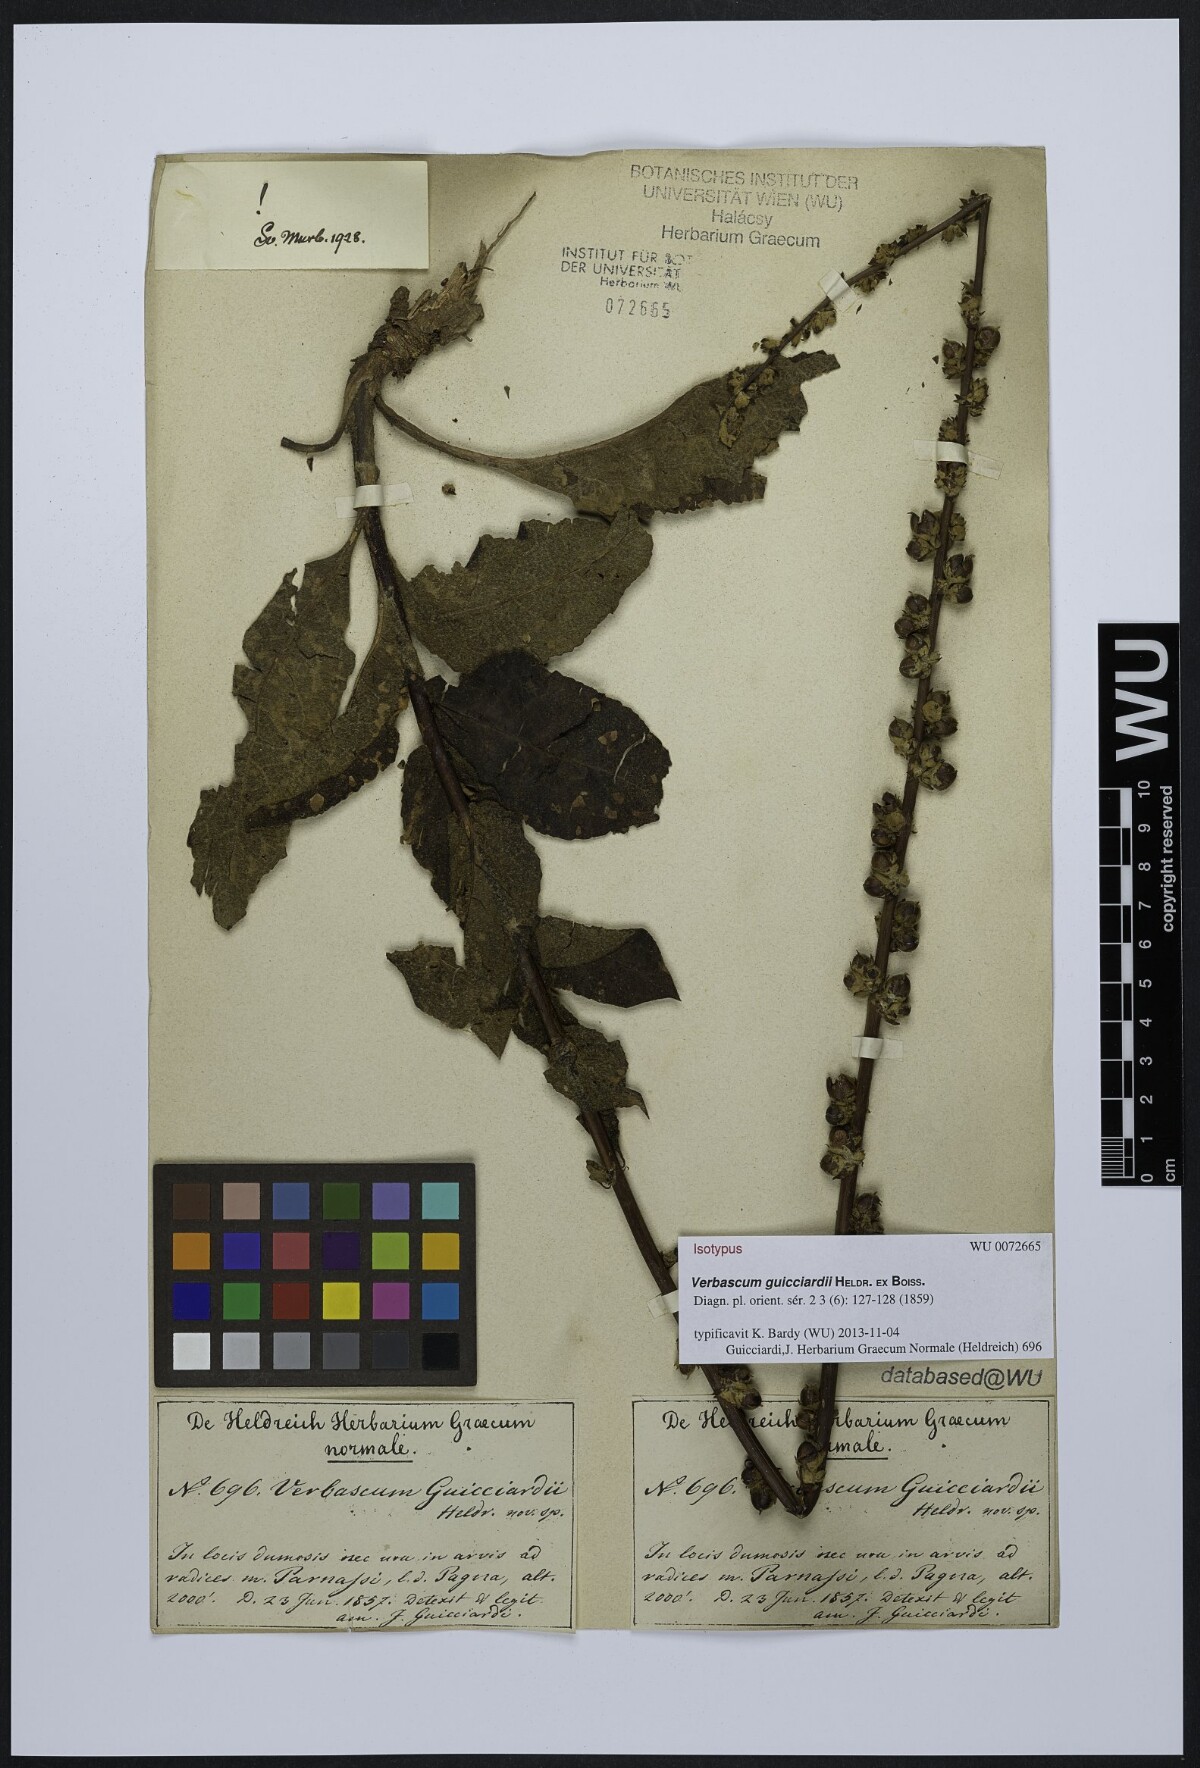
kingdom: Plantae
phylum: Tracheophyta
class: Magnoliopsida
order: Lamiales
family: Scrophulariaceae
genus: Verbascum
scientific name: Verbascum guicciardii
